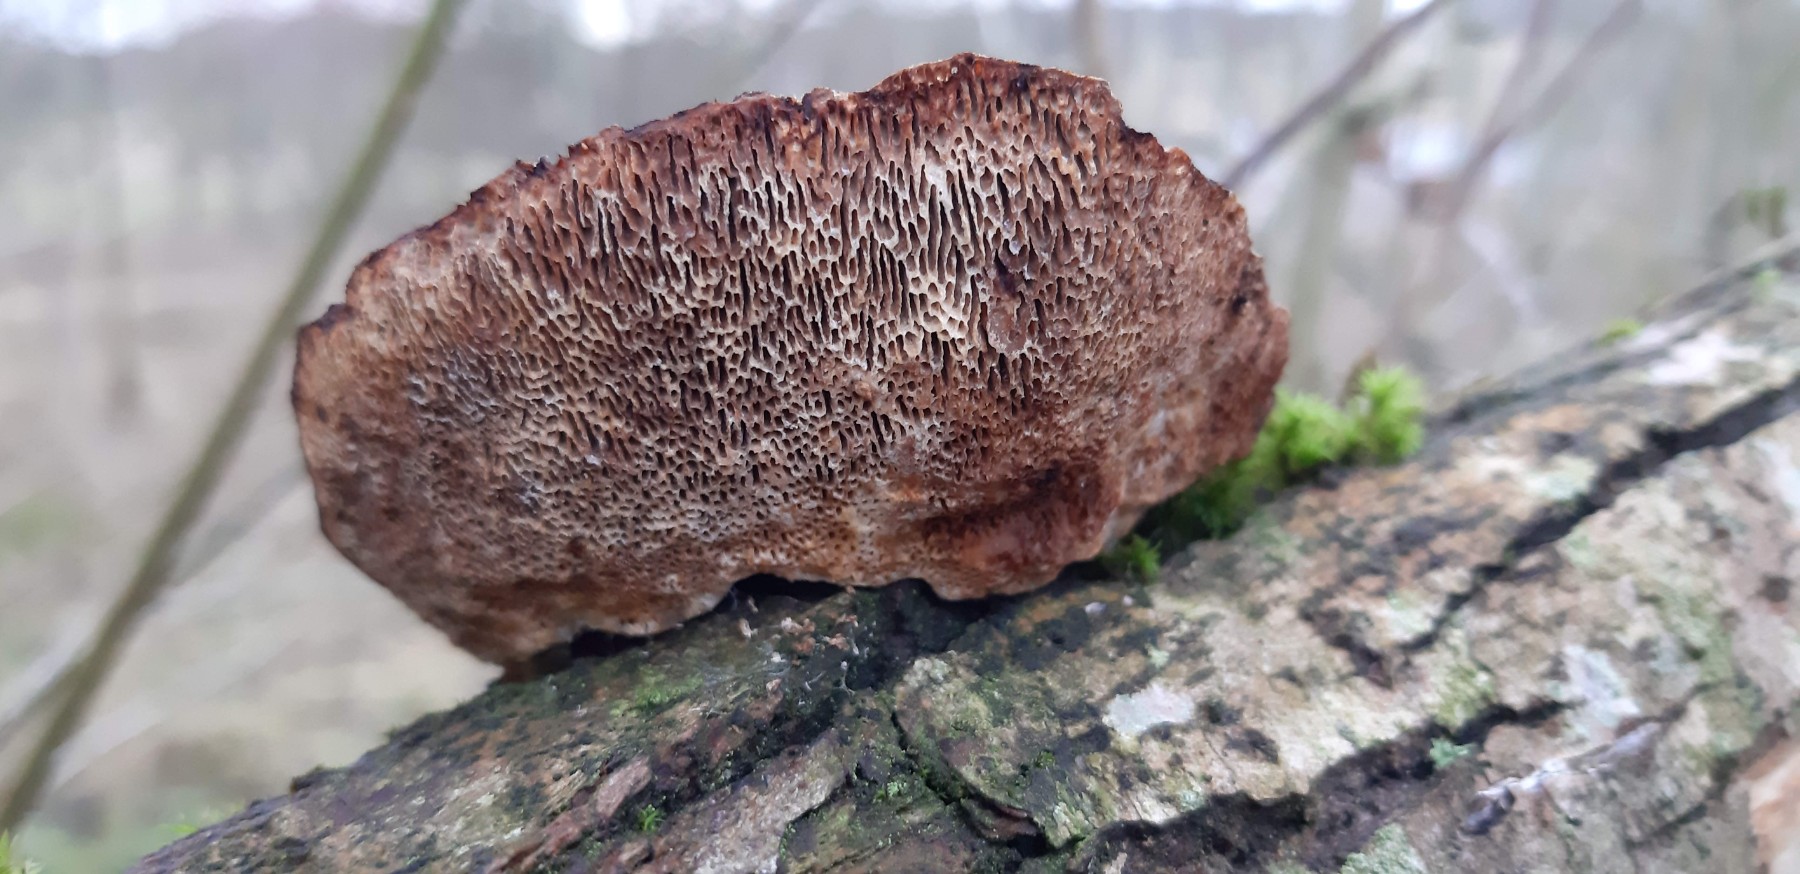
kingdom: Fungi
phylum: Basidiomycota
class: Agaricomycetes
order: Polyporales
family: Polyporaceae
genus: Daedaleopsis
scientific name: Daedaleopsis confragosa
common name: rødmende læderporesvamp
